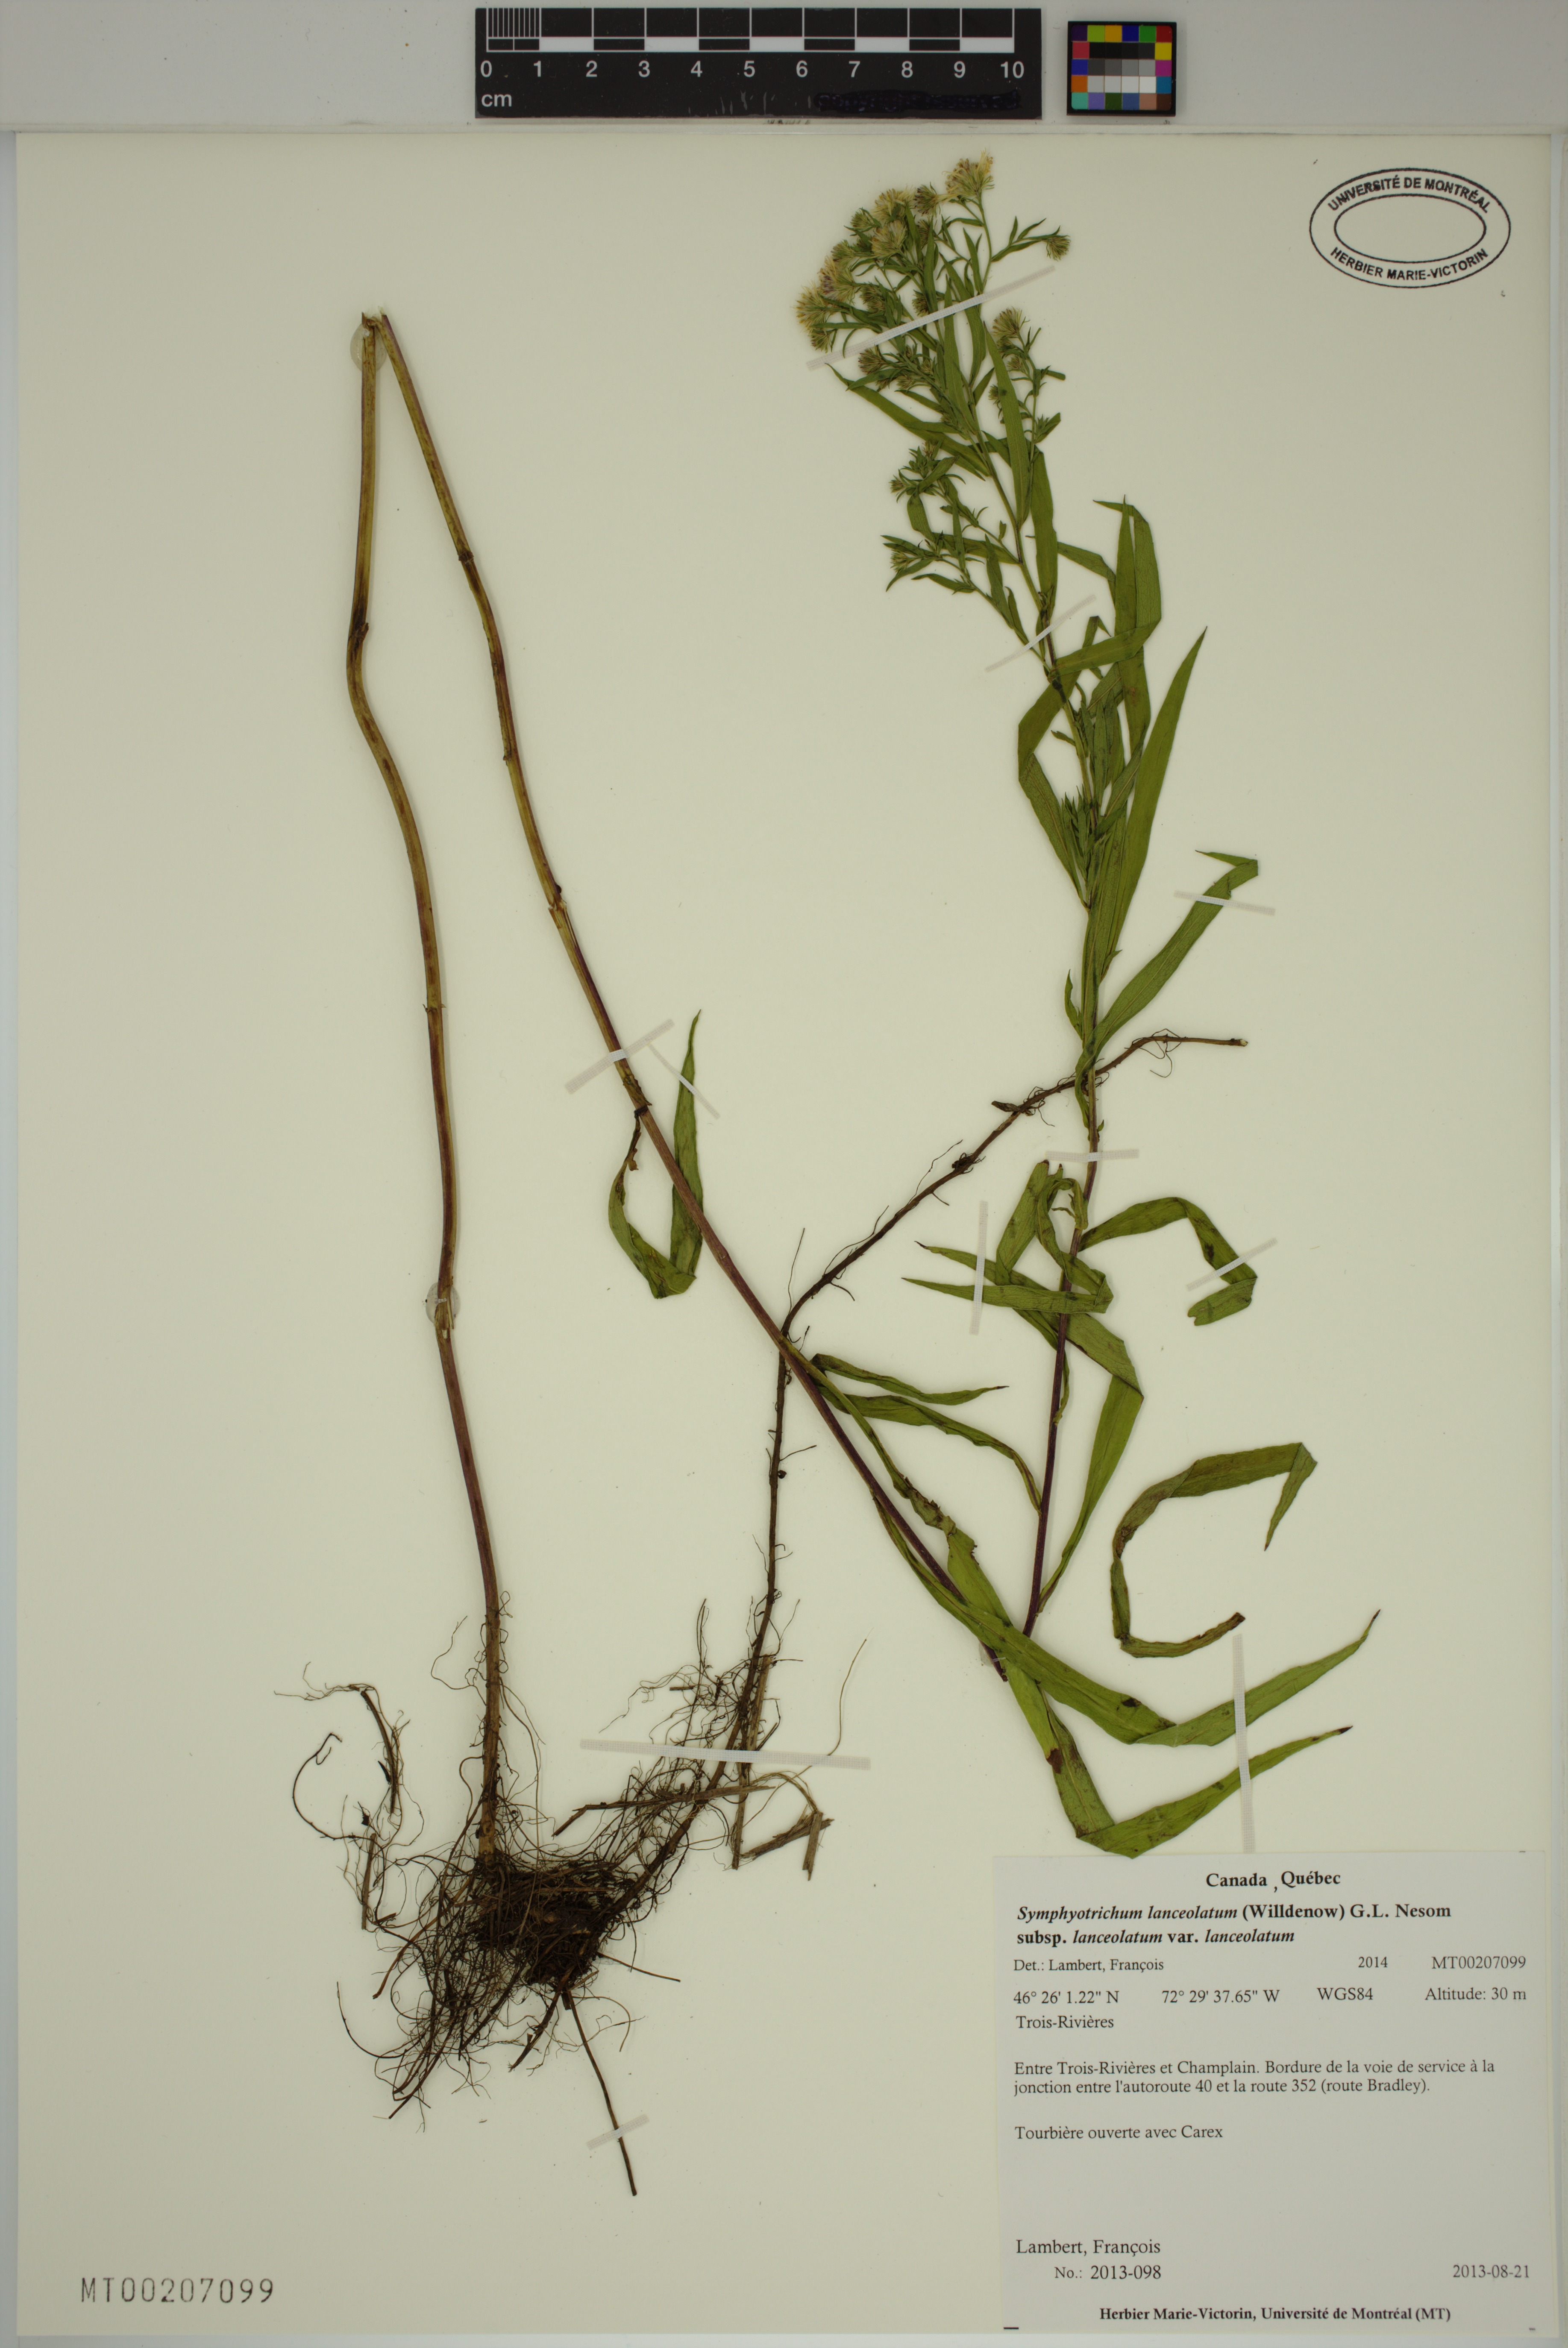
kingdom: Plantae
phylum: Tracheophyta
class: Magnoliopsida
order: Asterales
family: Asteraceae
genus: Symphyotrichum
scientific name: Symphyotrichum lanceolatum
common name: Panicled aster
